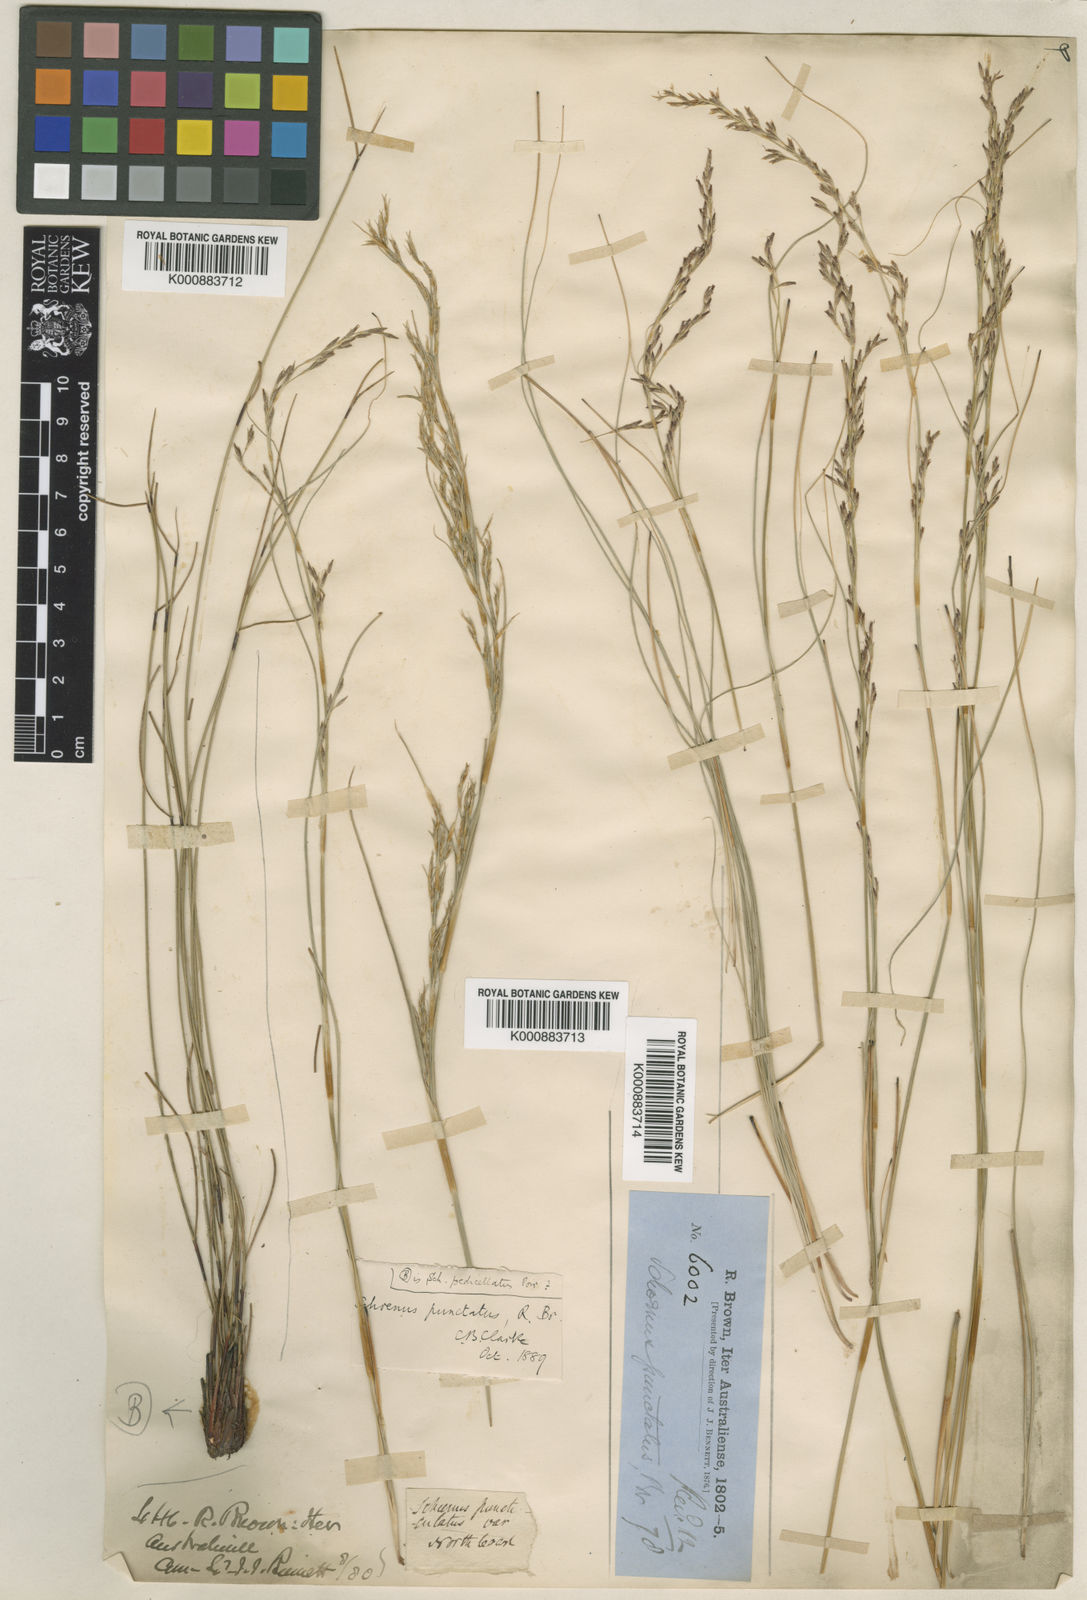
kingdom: Plantae
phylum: Tracheophyta
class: Liliopsida
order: Poales
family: Cyperaceae
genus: Schoenus
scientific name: Schoenus punctatus
